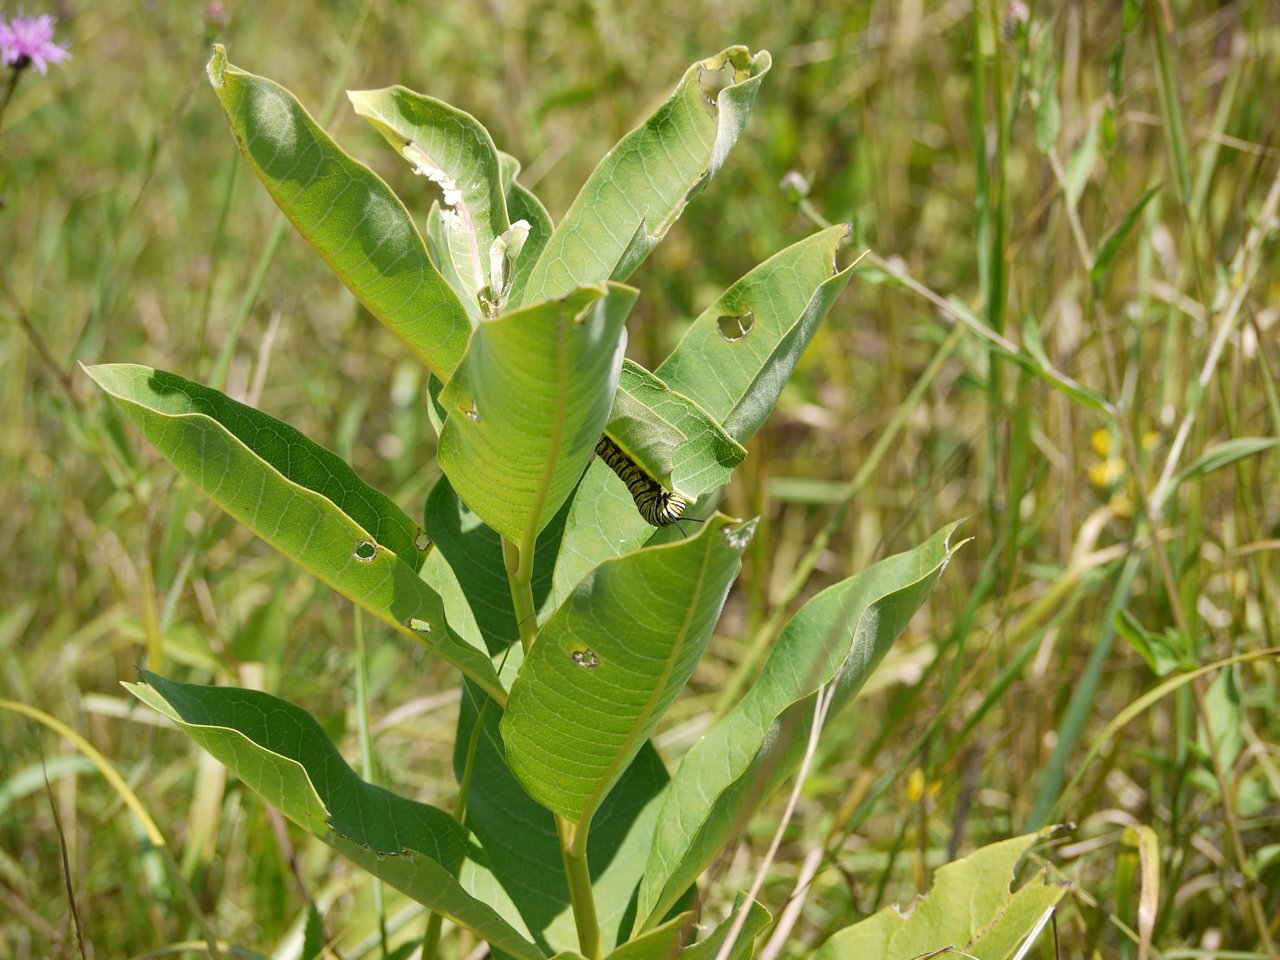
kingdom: Animalia
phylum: Arthropoda
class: Insecta
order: Lepidoptera
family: Nymphalidae
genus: Danaus
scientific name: Danaus plexippus
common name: Monarch
